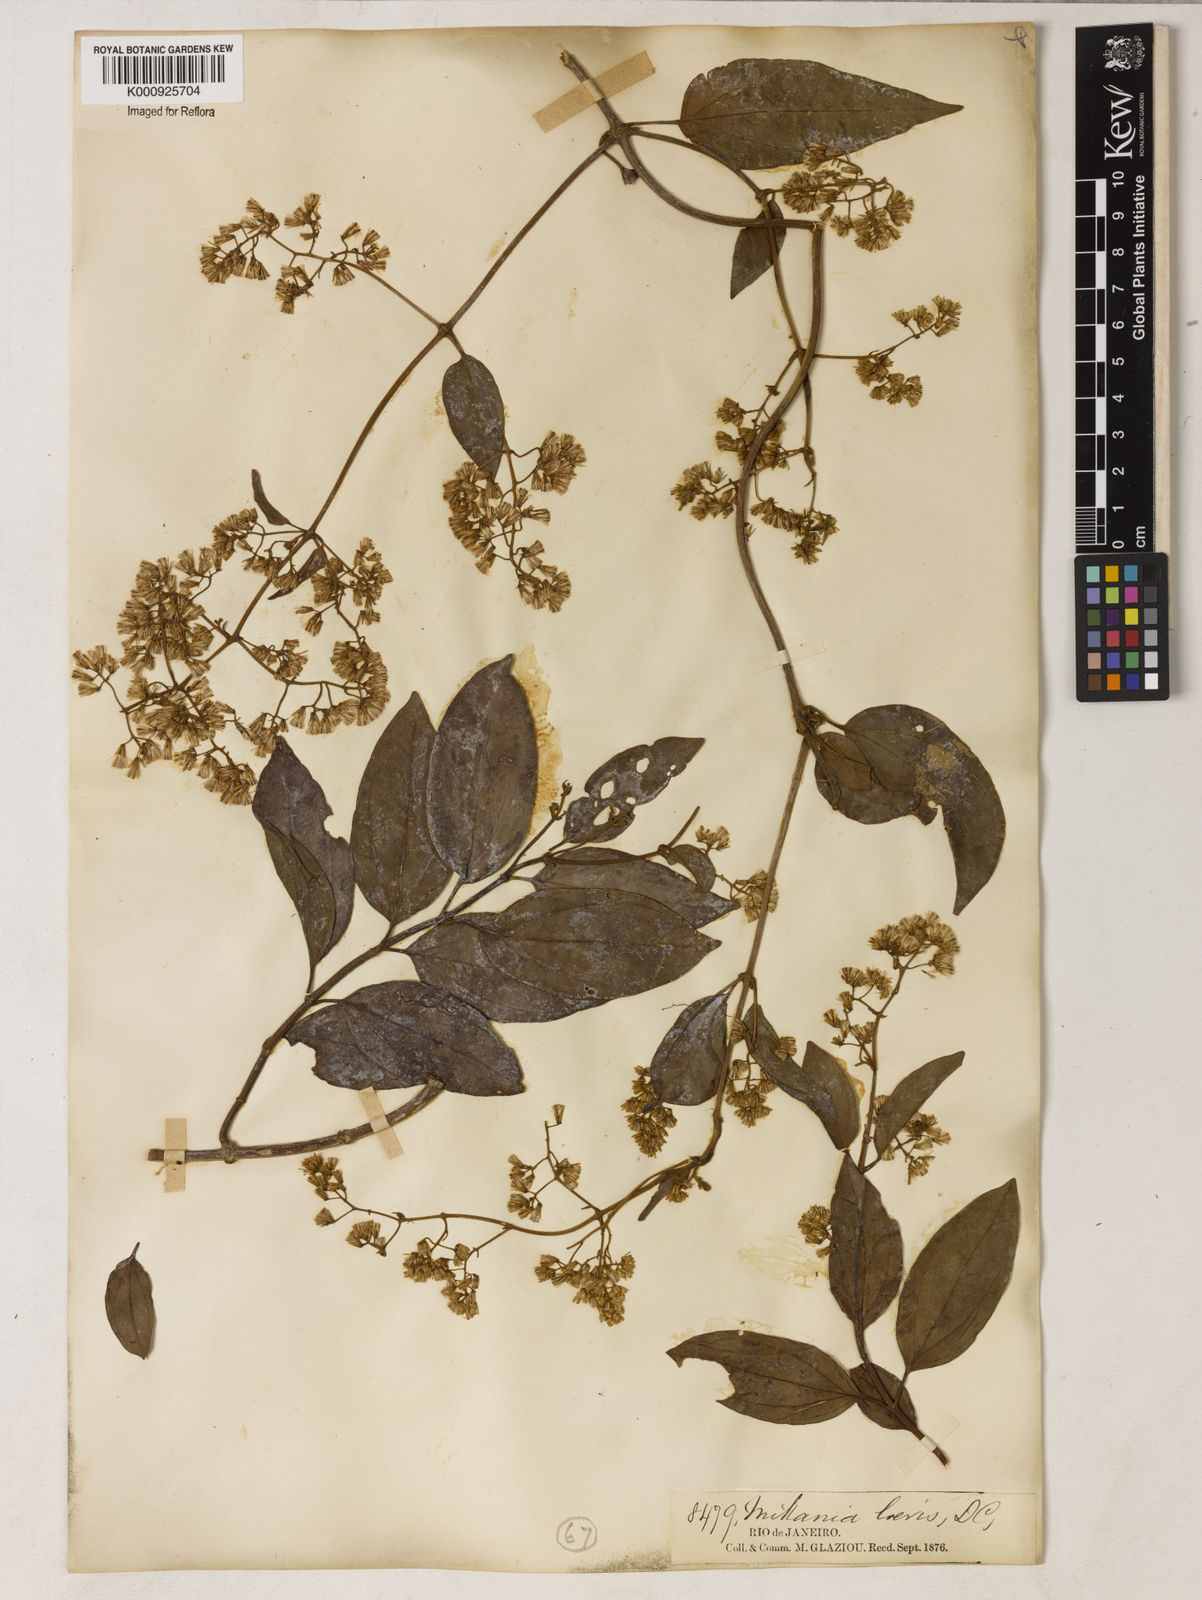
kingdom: Plantae
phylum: Tracheophyta
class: Magnoliopsida
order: Asterales
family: Asteraceae
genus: Mikania
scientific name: Mikania trinervis
